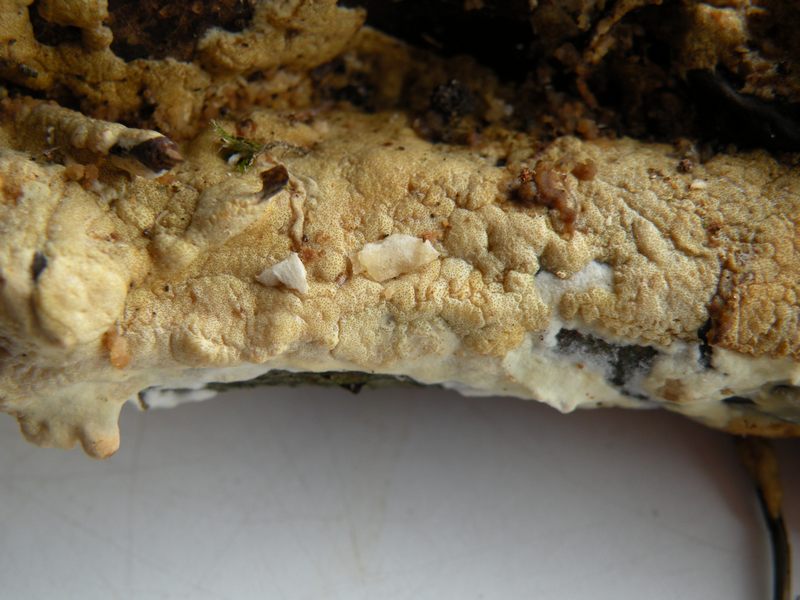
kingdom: Fungi
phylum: Ascomycota
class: Sordariomycetes
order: Hypocreales
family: Hypocreaceae
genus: Trichoderma
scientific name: Trichoderma citrinum
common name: udbredt kødkerne
